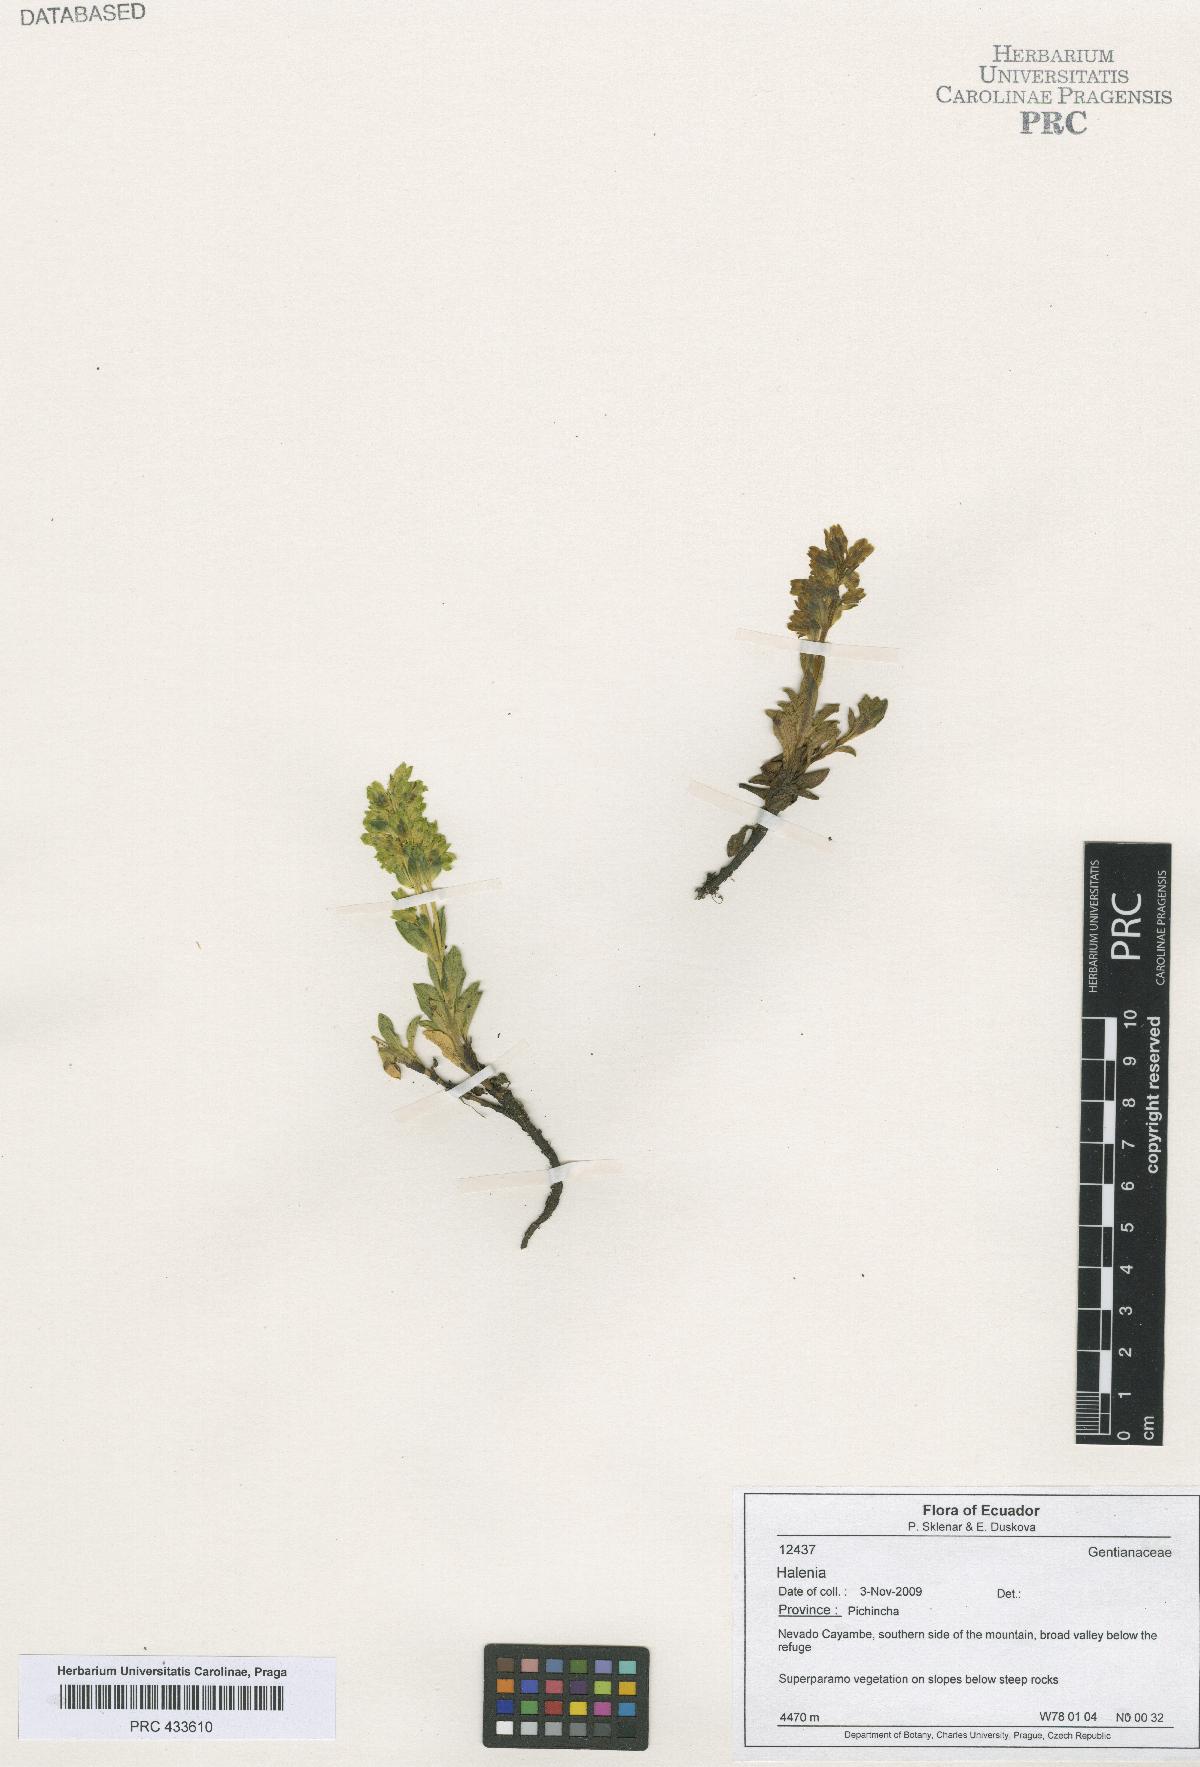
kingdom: Plantae
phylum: Tracheophyta
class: Magnoliopsida
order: Gentianales
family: Gentianaceae
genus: Halenia
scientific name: Halenia
